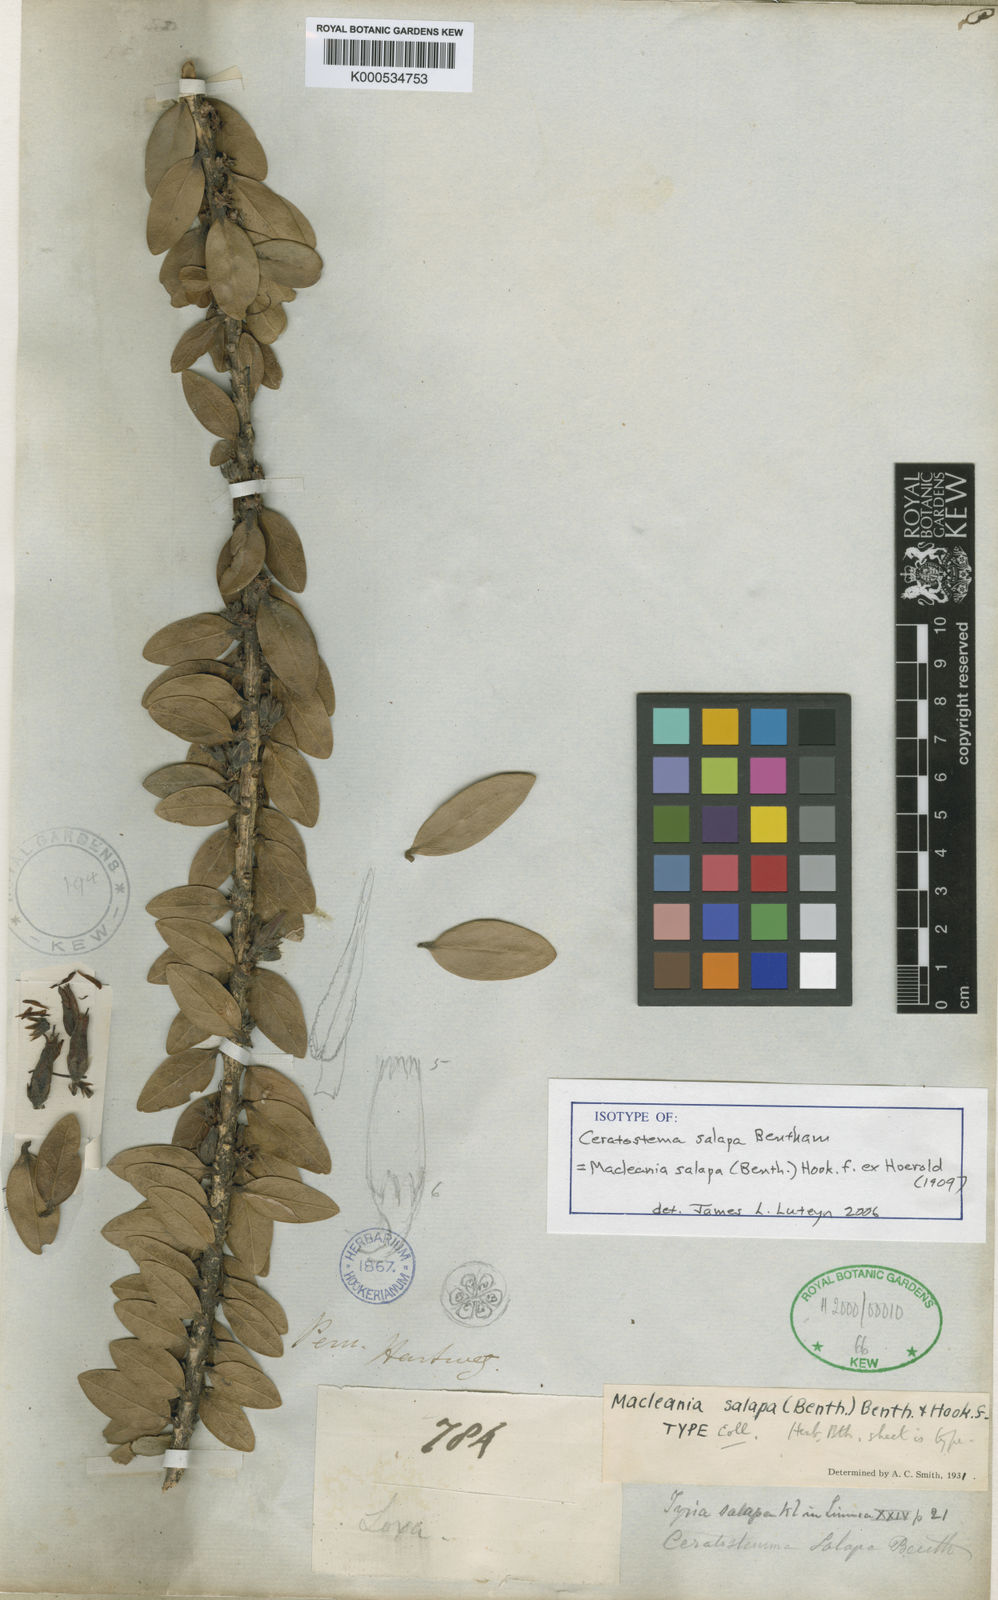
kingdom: Plantae
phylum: Tracheophyta
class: Magnoliopsida
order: Ericales
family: Ericaceae
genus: Macleania
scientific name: Macleania
